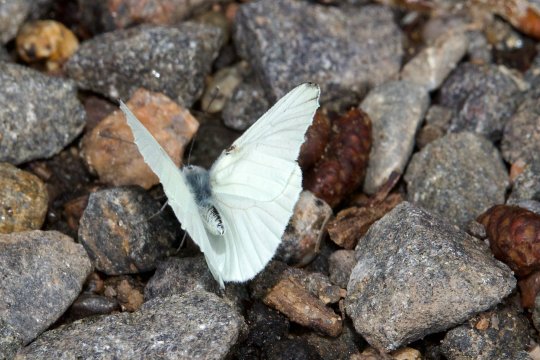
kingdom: Animalia
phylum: Arthropoda
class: Insecta
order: Lepidoptera
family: Pieridae
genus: Pieris
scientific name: Pieris oleracea
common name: Mustard White
